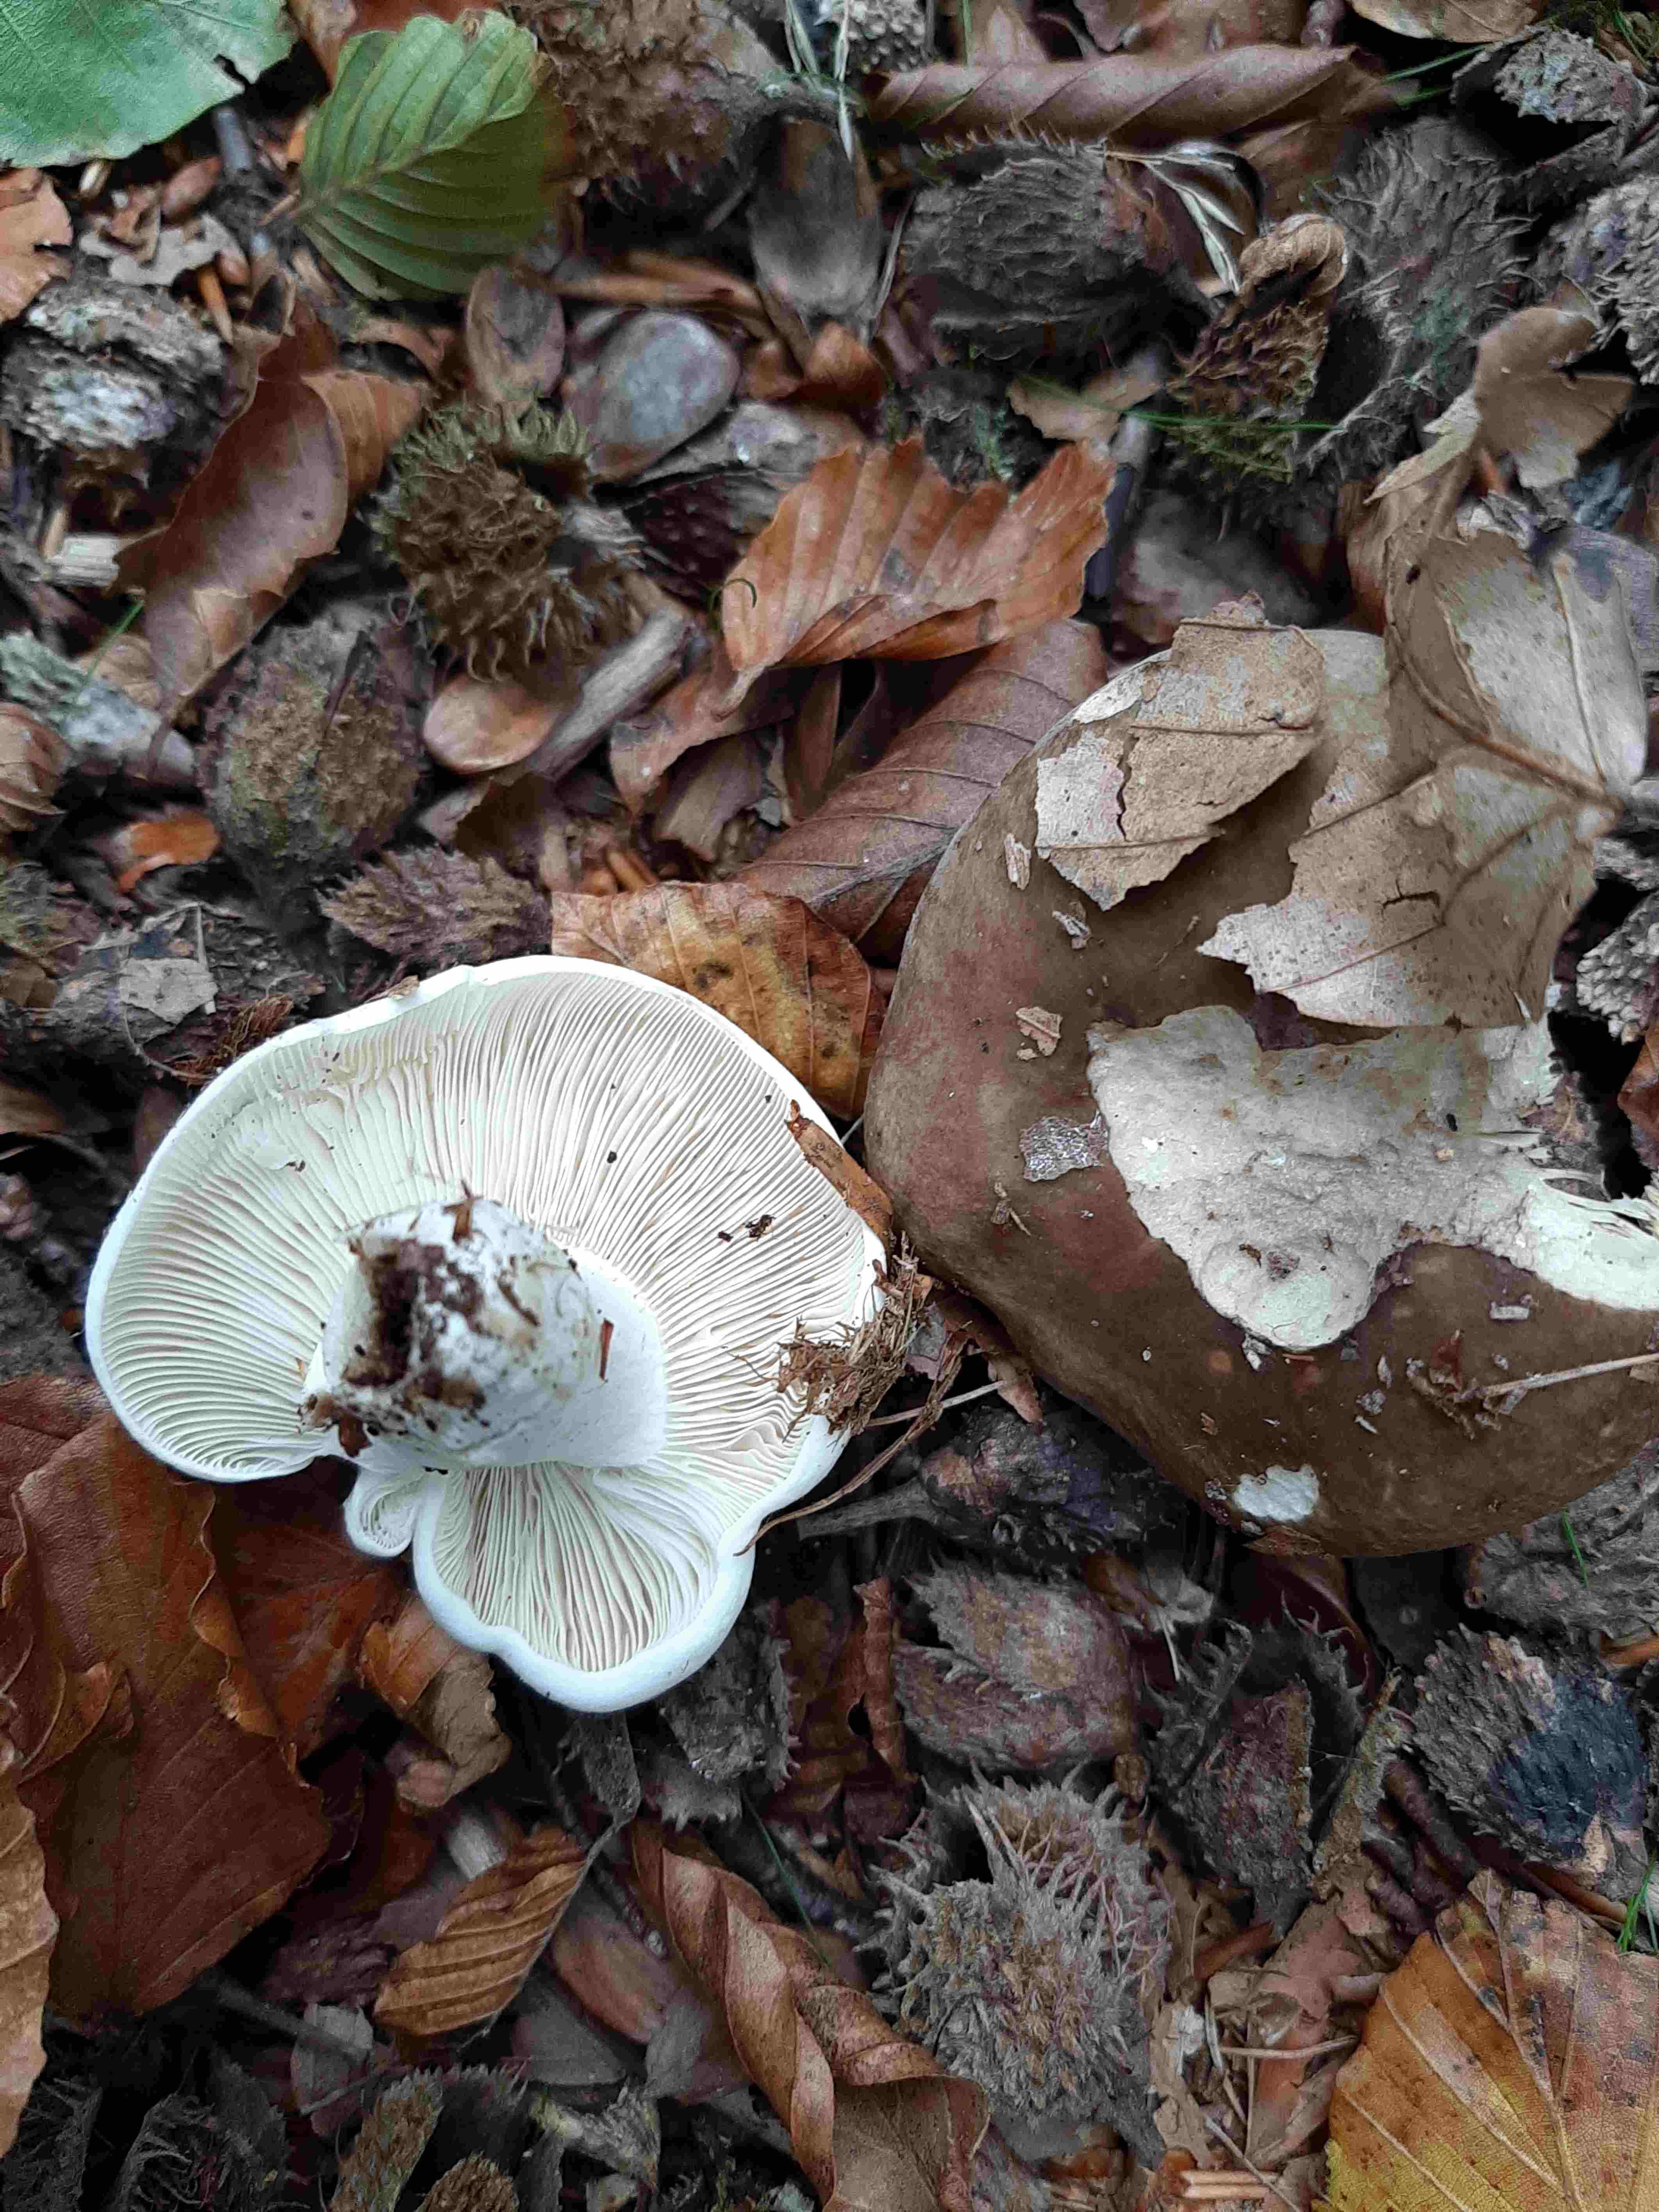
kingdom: Fungi
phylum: Basidiomycota
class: Agaricomycetes
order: Russulales
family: Russulaceae
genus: Russula
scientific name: Russula
